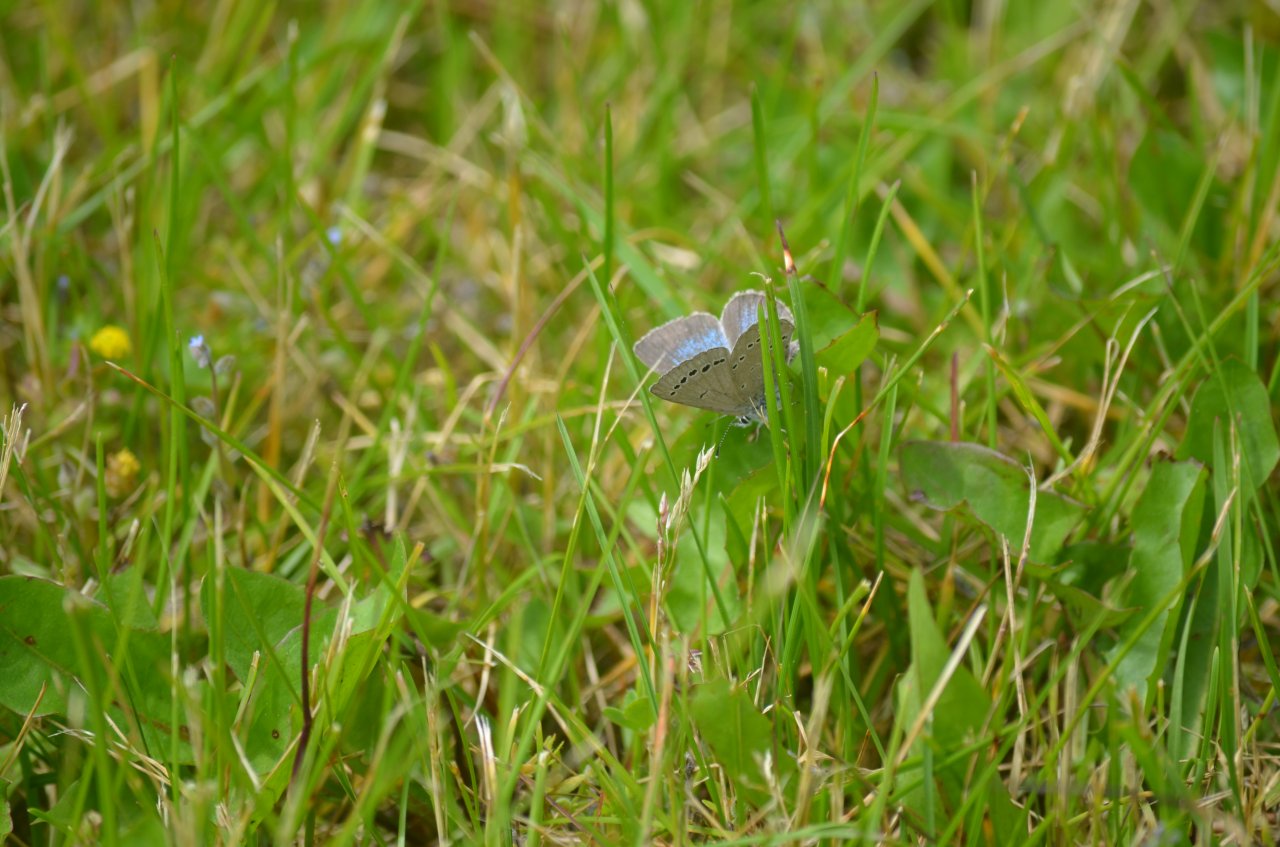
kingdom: Animalia
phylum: Arthropoda
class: Insecta
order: Lepidoptera
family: Lycaenidae
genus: Glaucopsyche
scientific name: Glaucopsyche lygdamus
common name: Silvery Blue
